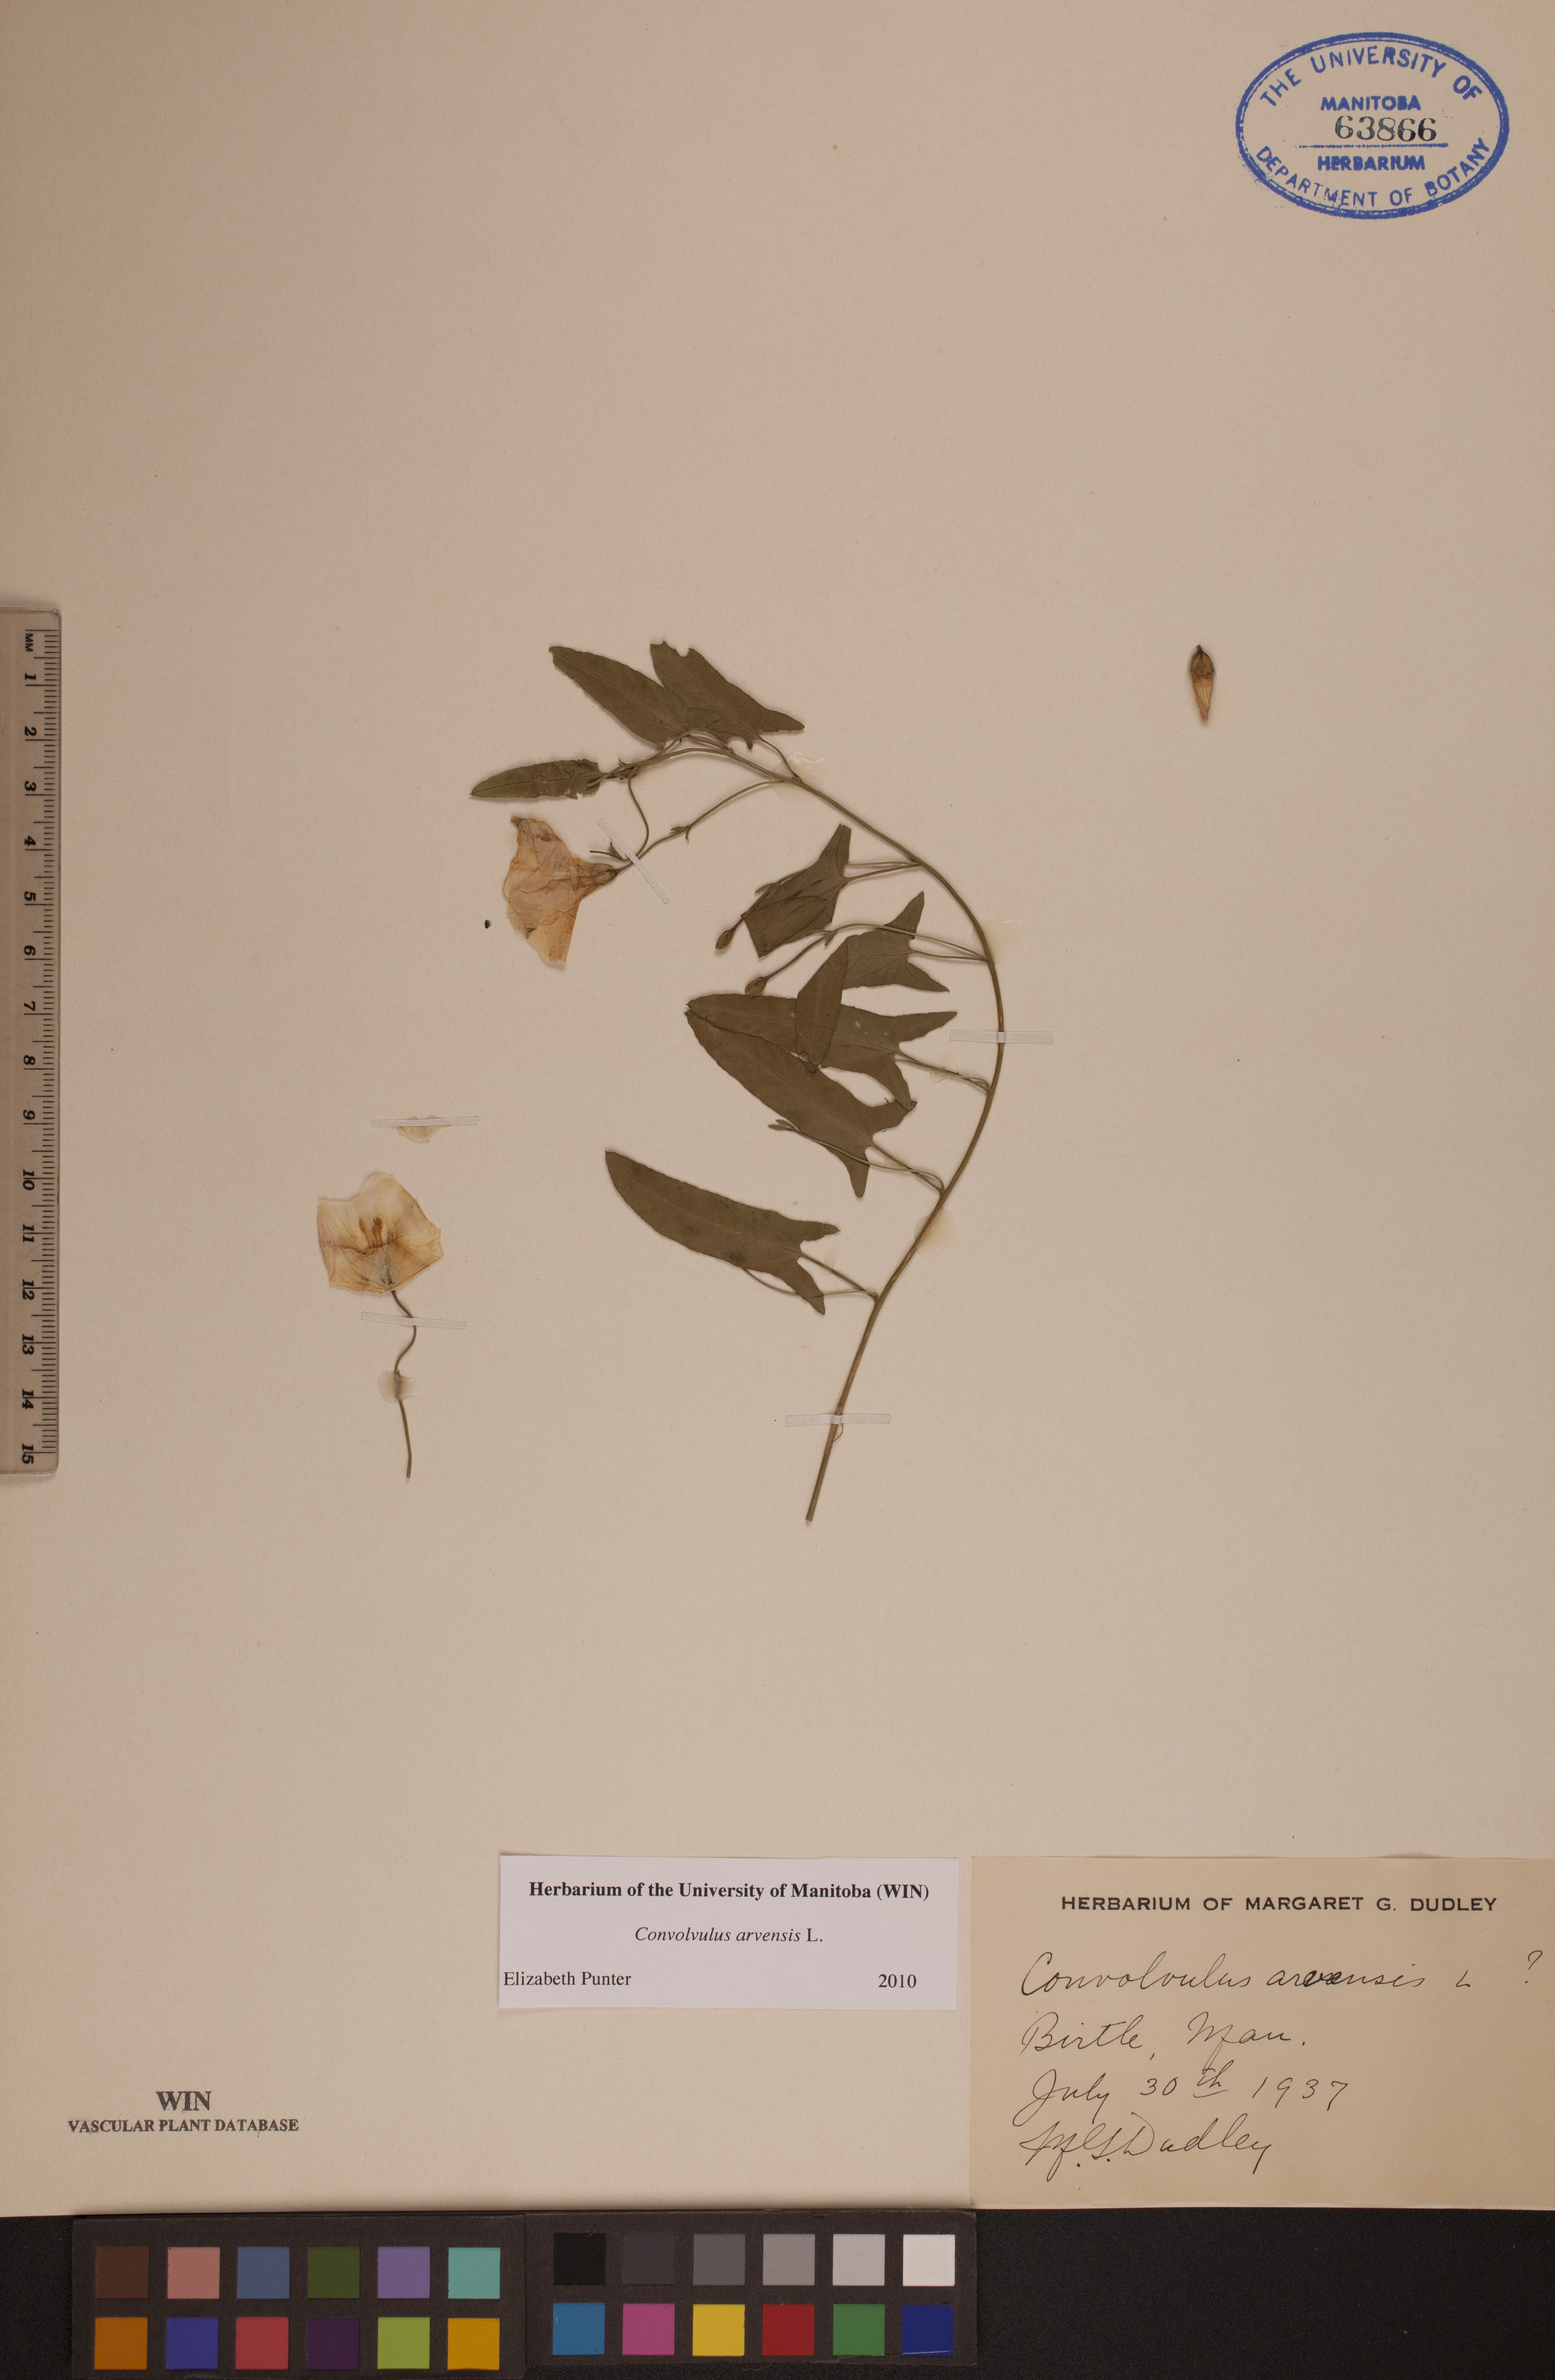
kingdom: Plantae
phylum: Tracheophyta
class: Magnoliopsida
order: Solanales
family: Convolvulaceae
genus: Convolvulus
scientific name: Convolvulus arvensis
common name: Field bindweed
